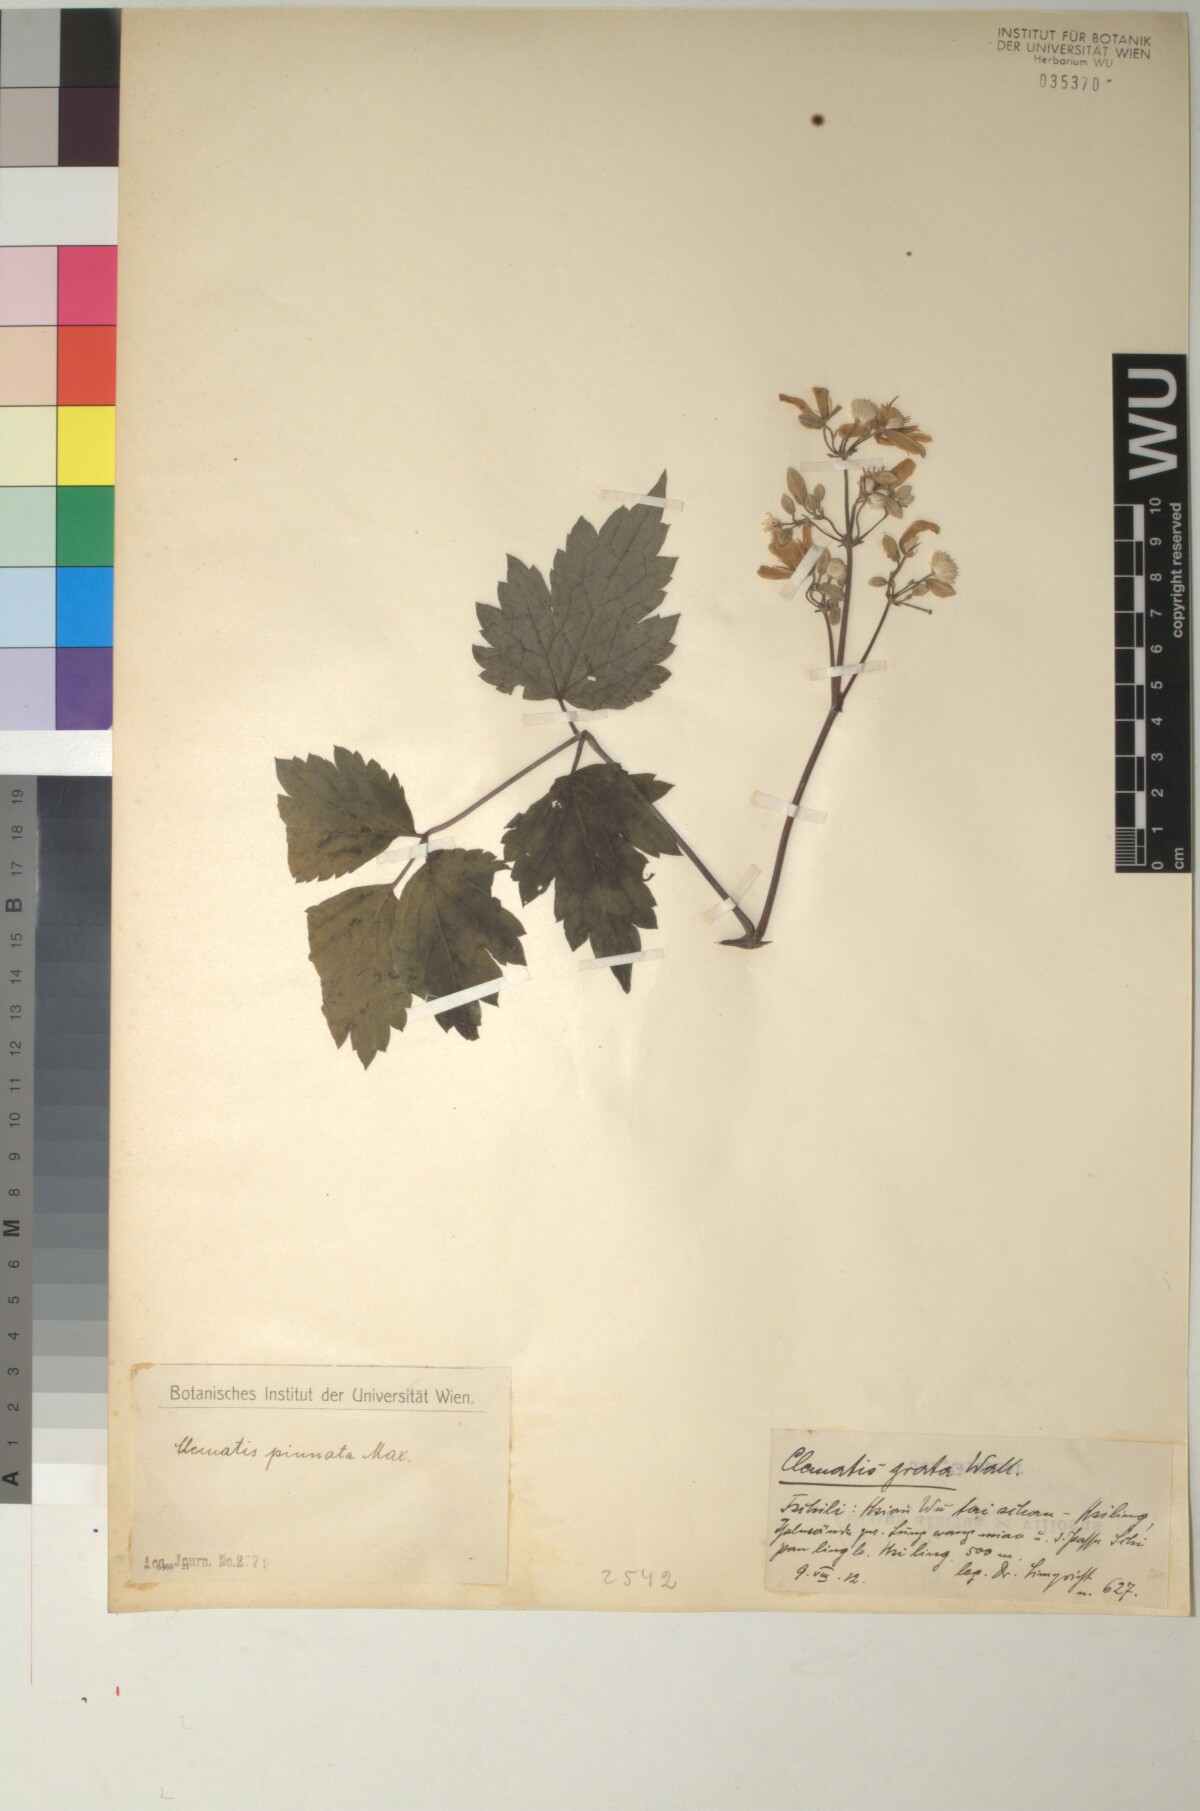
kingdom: Plantae
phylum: Tracheophyta
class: Magnoliopsida
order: Ranunculales
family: Ranunculaceae
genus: Clematis
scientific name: Clematis pinnata
